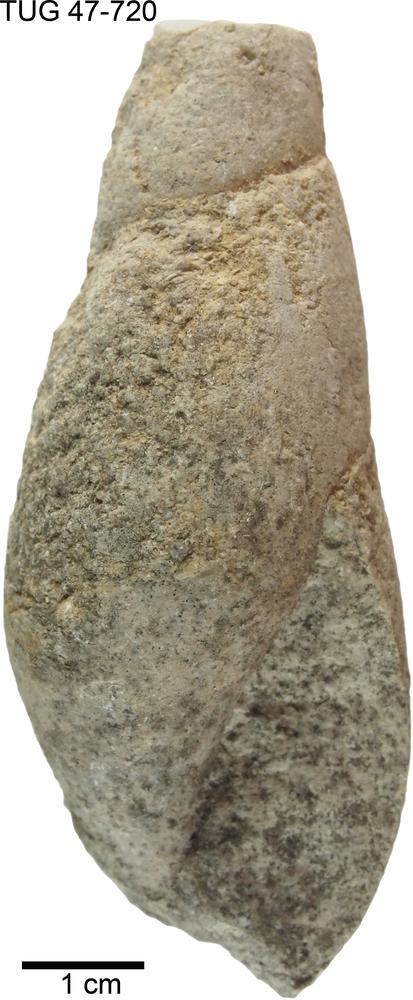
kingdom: Animalia
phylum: Mollusca
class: Gastropoda
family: Subulitidae
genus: Subulites
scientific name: Subulites subula
